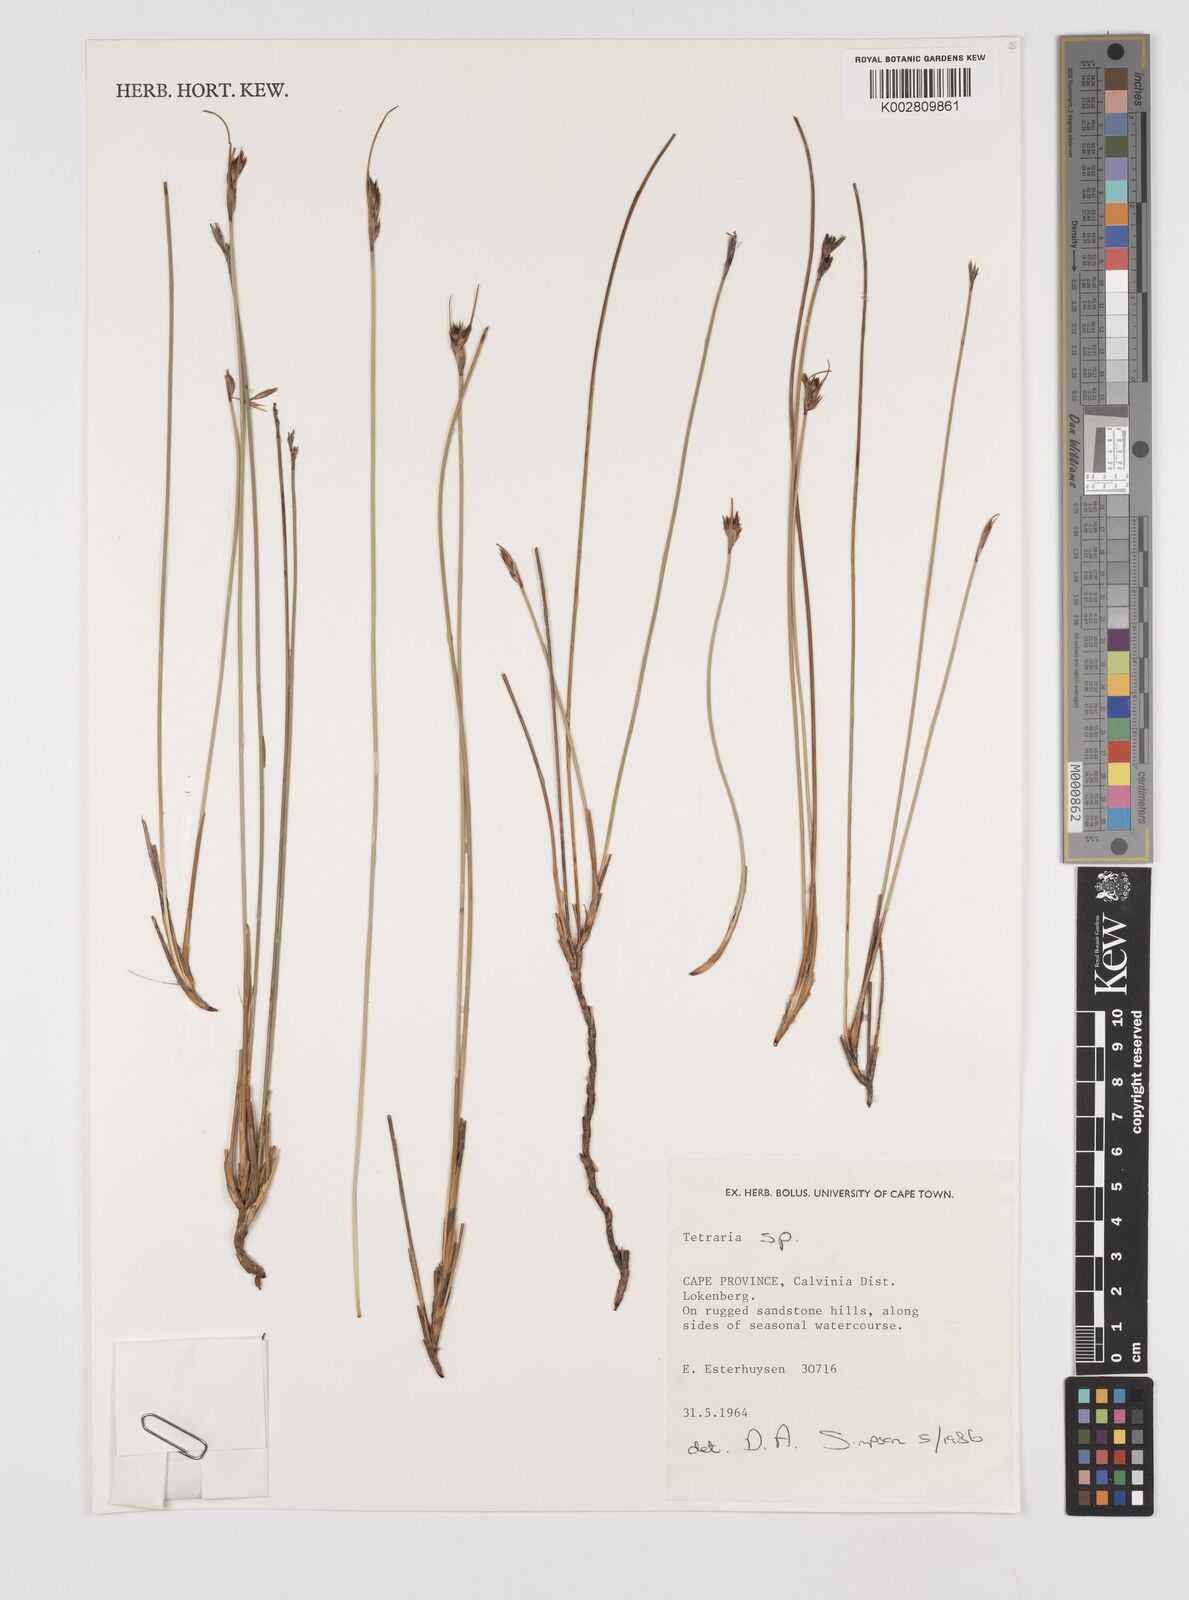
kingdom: Plantae
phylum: Tracheophyta
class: Liliopsida
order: Poales
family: Cyperaceae
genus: Schoenus
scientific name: Schoenus pseudoloreus
